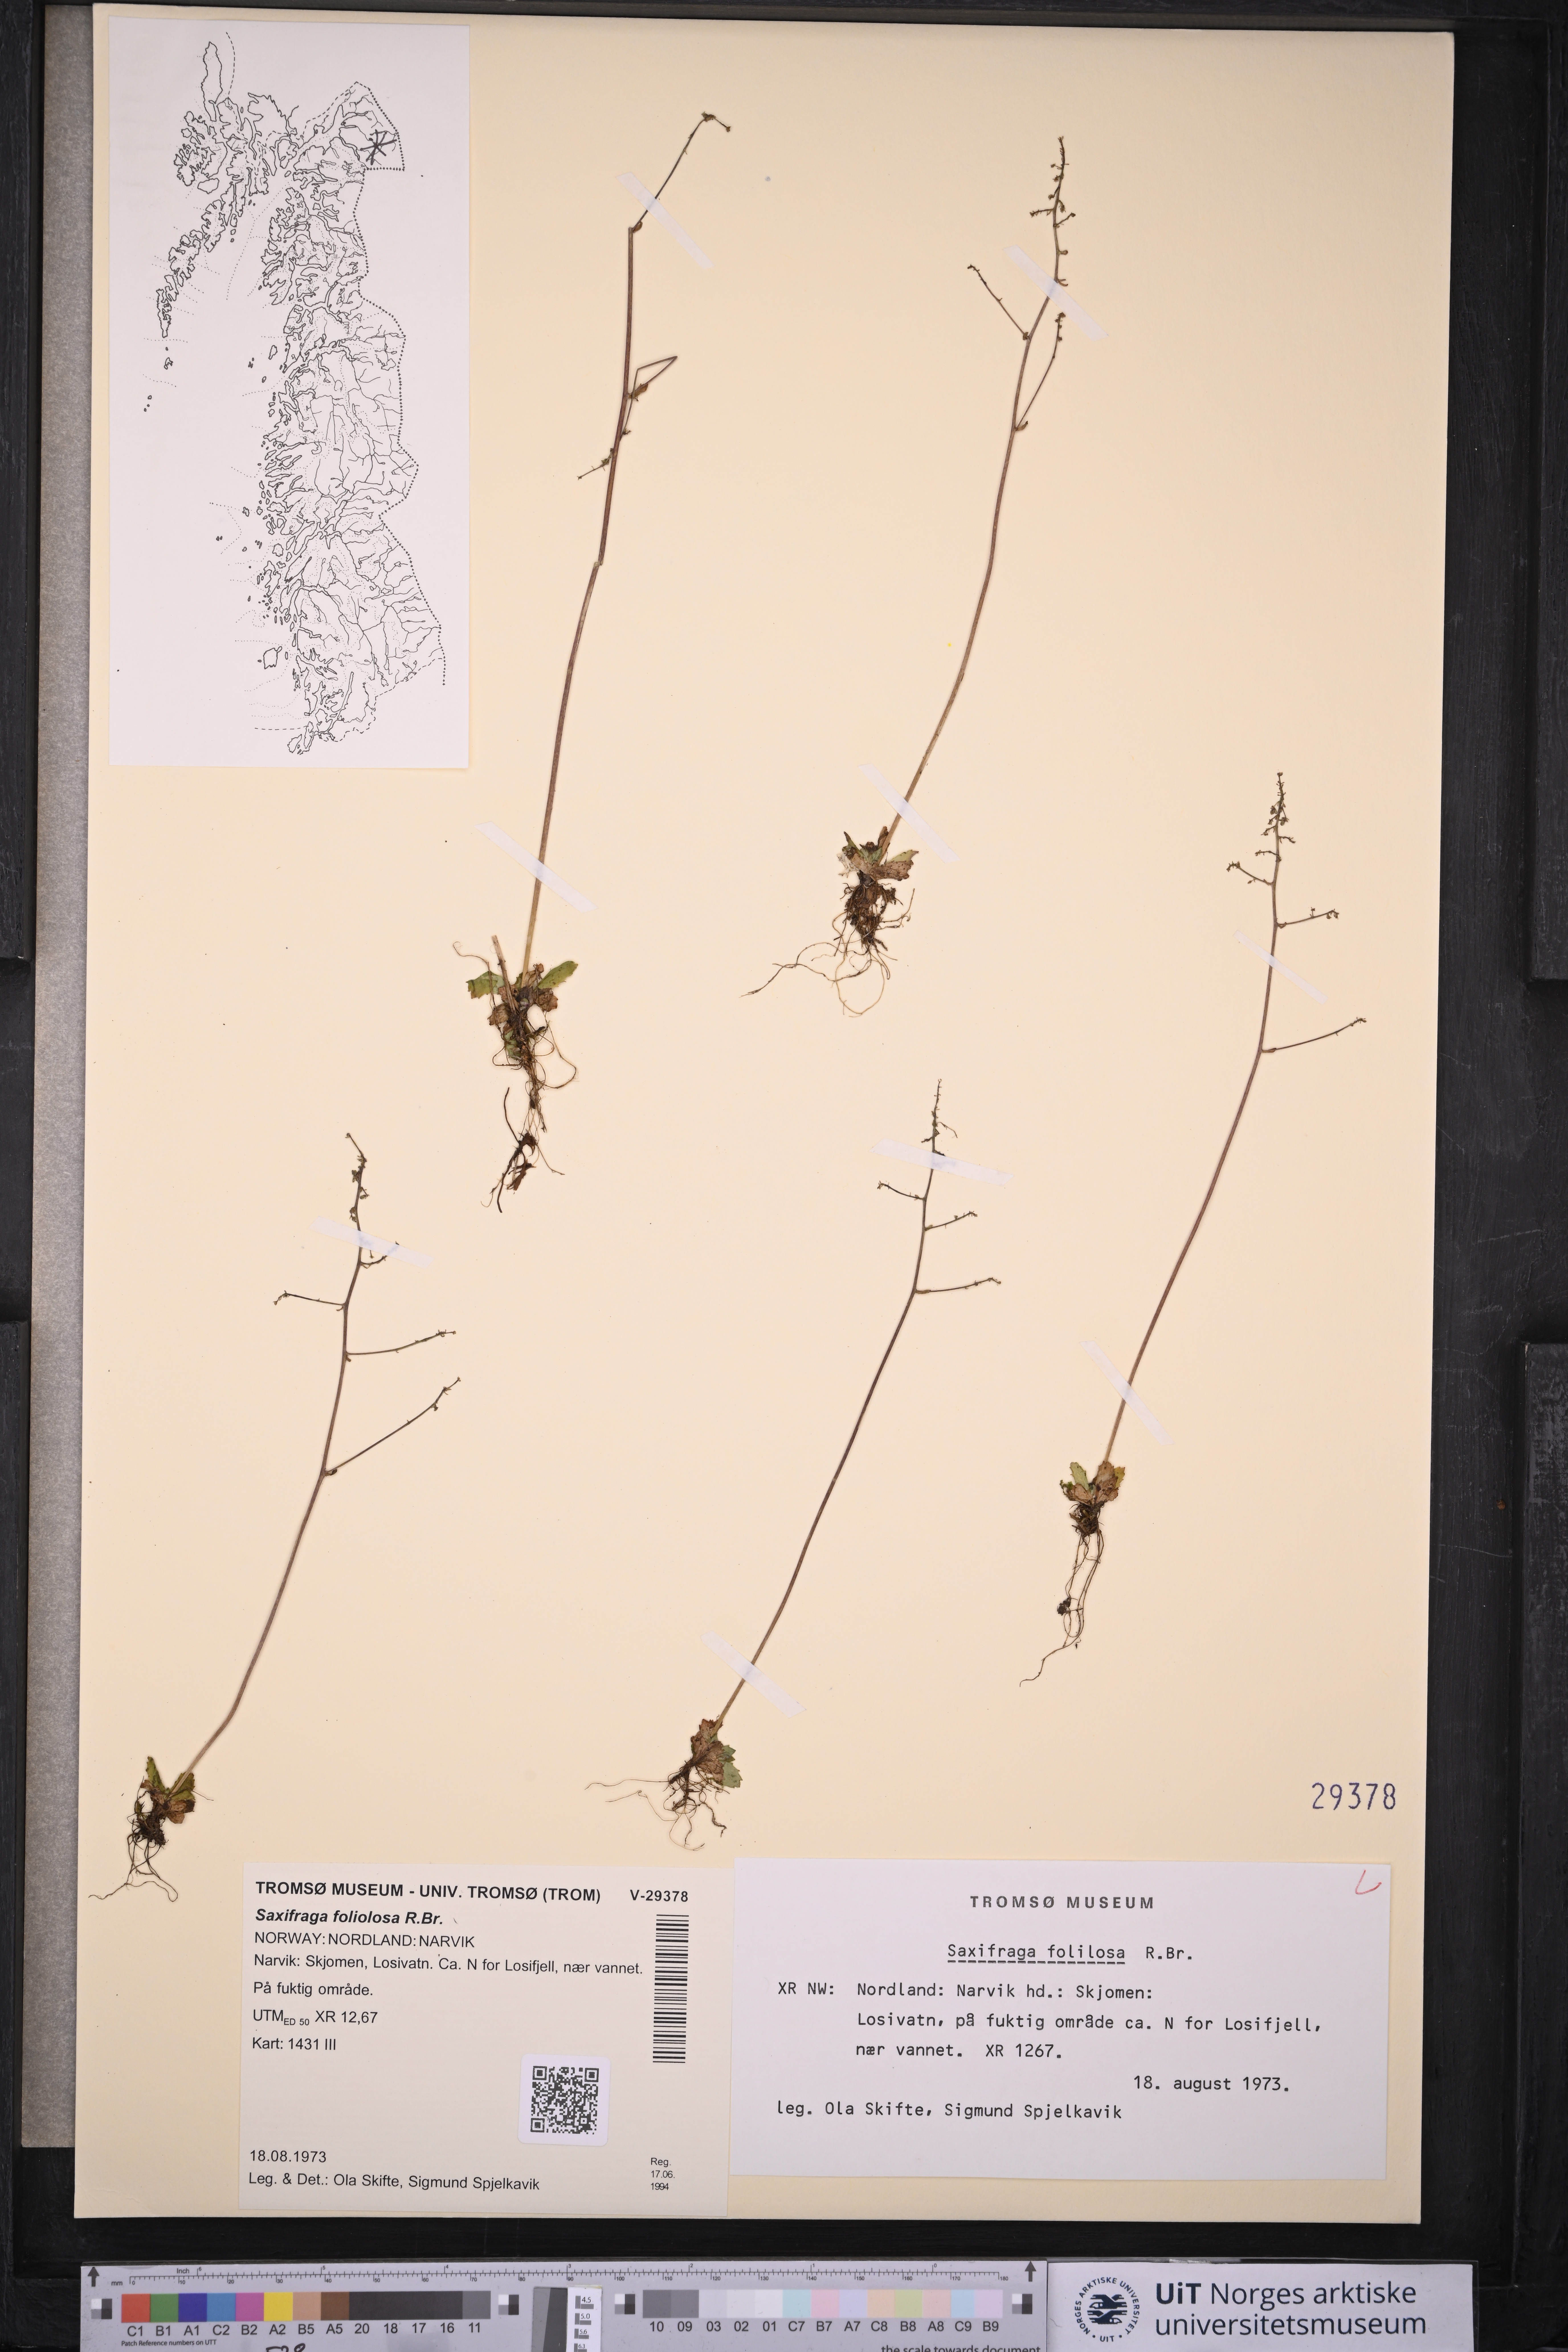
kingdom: Plantae
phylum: Tracheophyta
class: Magnoliopsida
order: Saxifragales
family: Saxifragaceae
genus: Micranthes
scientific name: Micranthes foliolosa
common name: Leafystem saxifrage
